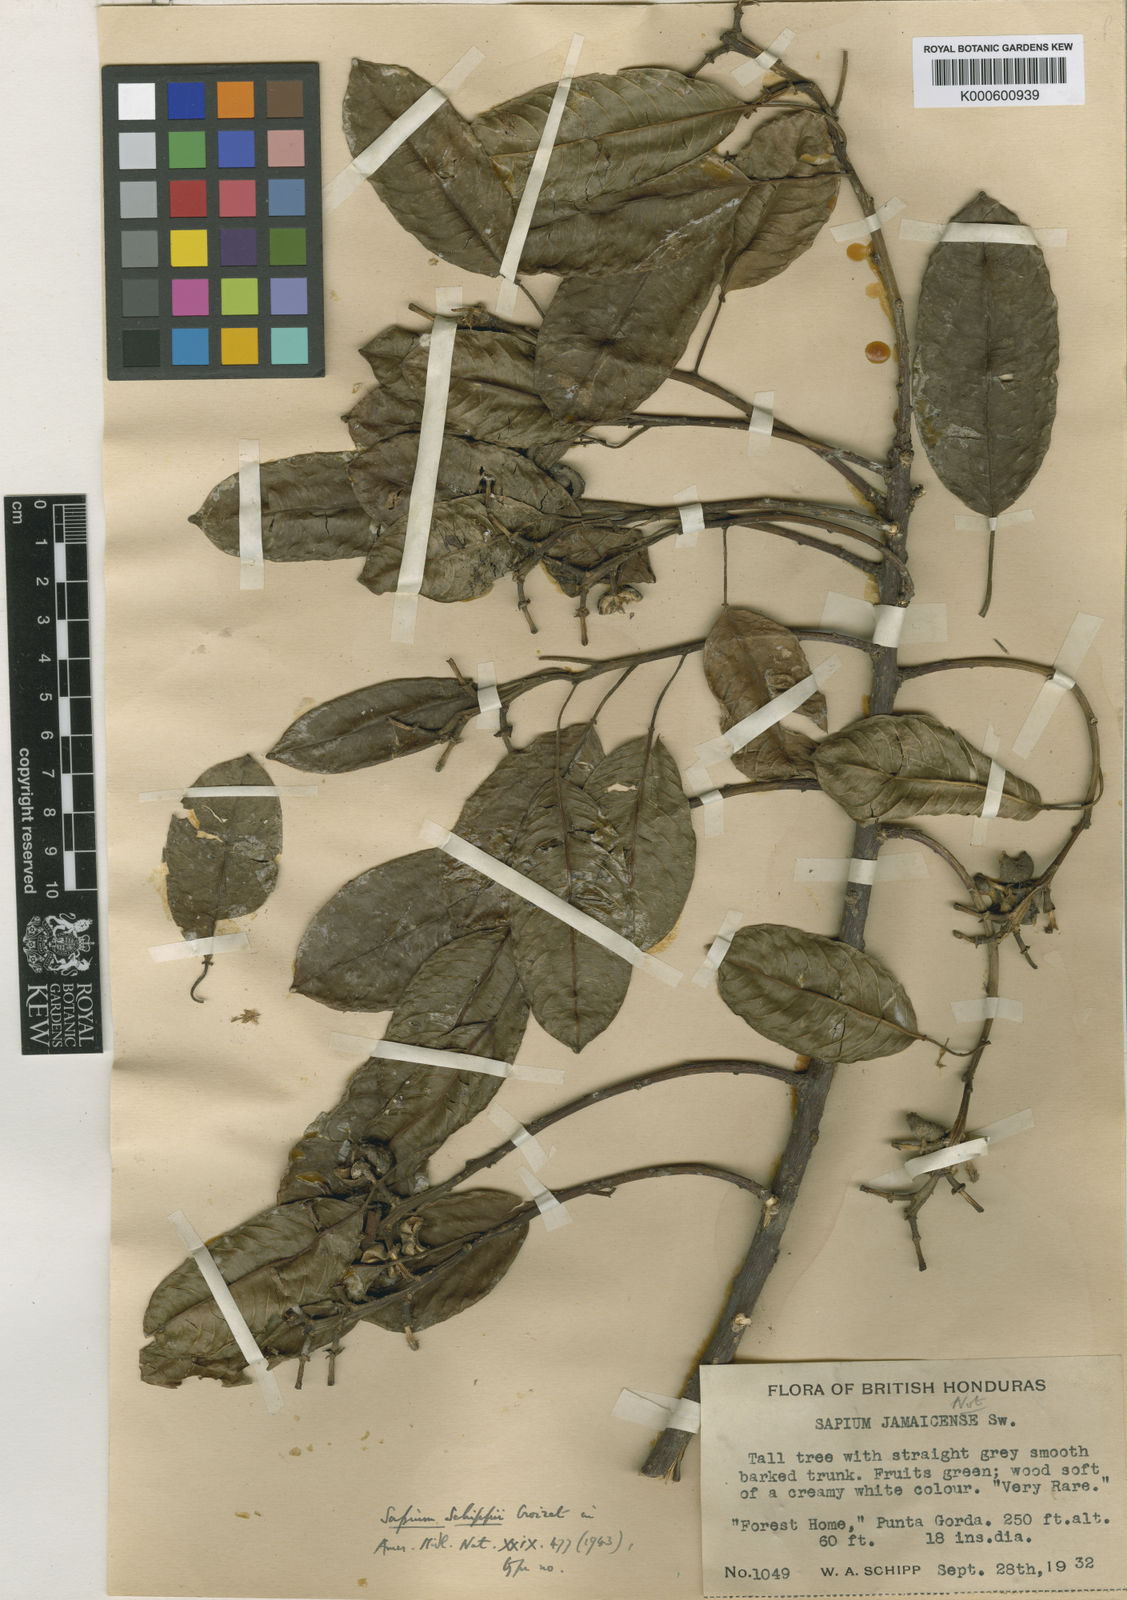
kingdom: Plantae
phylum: Tracheophyta
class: Magnoliopsida
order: Malpighiales
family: Euphorbiaceae
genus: Sapium
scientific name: Sapium glandulosum
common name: Milktree
